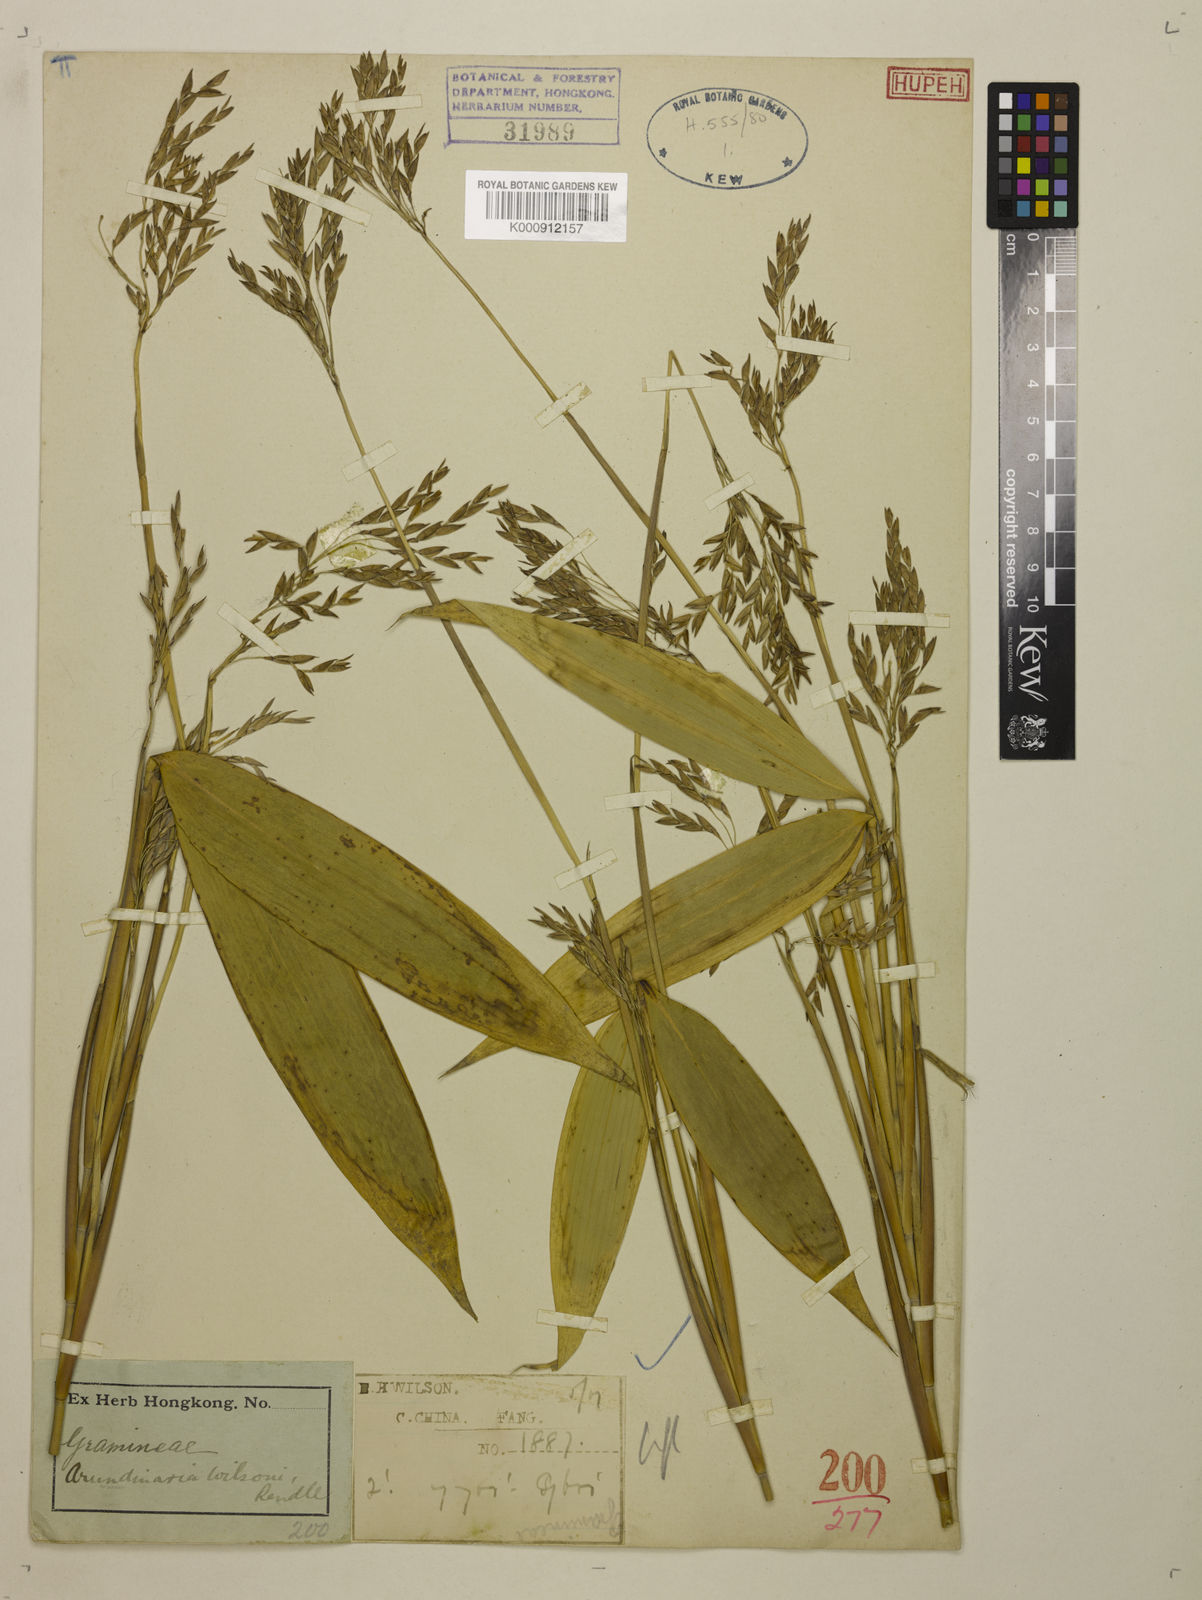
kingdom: Plantae
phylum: Tracheophyta
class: Liliopsida
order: Poales
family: Poaceae
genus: Ravenochloa
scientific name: Ravenochloa wilsonii
